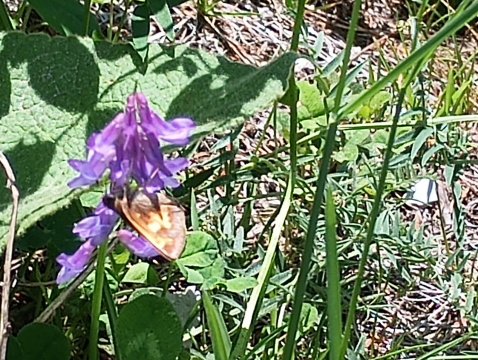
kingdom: Animalia
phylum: Arthropoda
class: Insecta
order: Lepidoptera
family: Hesperiidae
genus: Lon
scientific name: Lon hobomok
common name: Hobomok Skipper
